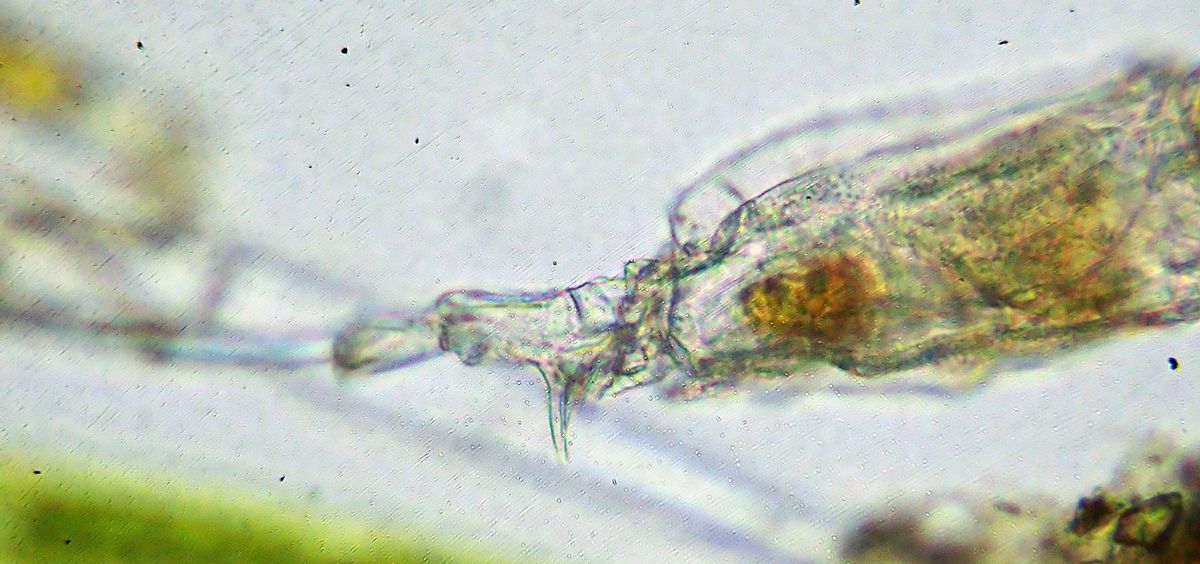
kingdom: Animalia
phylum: Rotifera
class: Eurotatoria
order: Ploima
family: Trichotriidae
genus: Trichotria
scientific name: Trichotria tetractis
